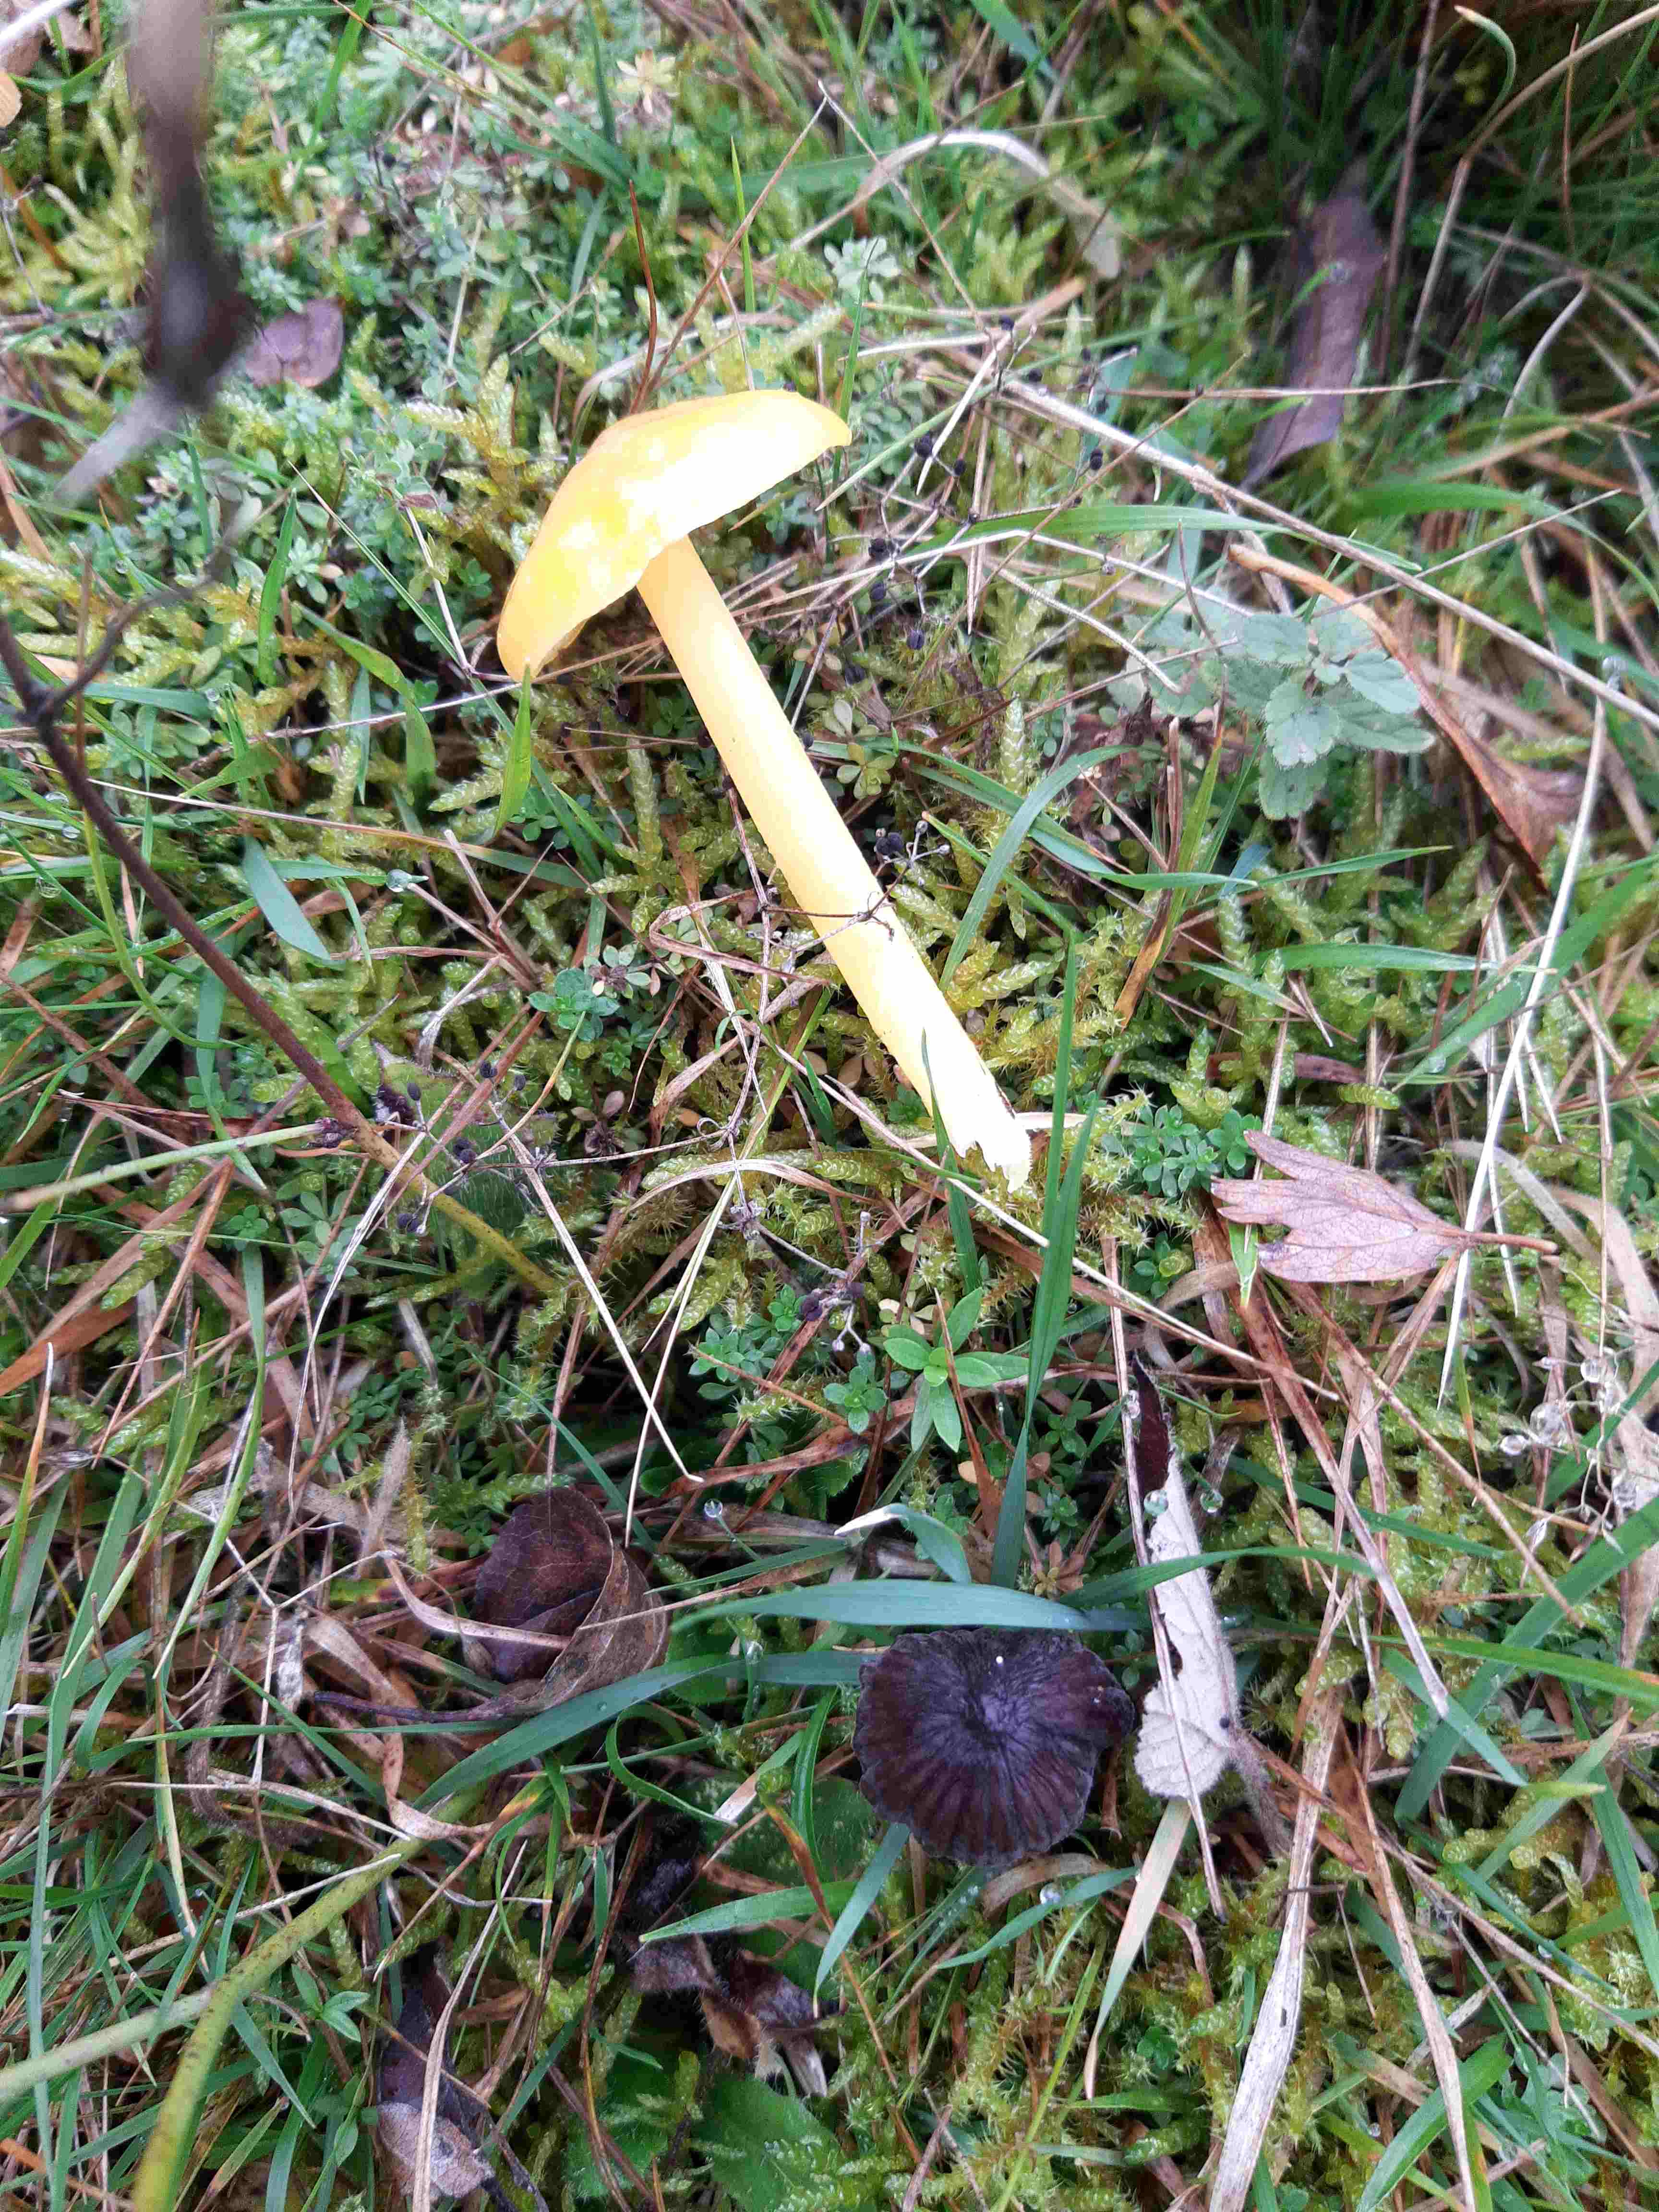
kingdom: Fungi
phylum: Basidiomycota
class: Agaricomycetes
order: Agaricales
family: Hygrophoraceae
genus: Hygrocybe
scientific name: Hygrocybe
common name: vokshat
